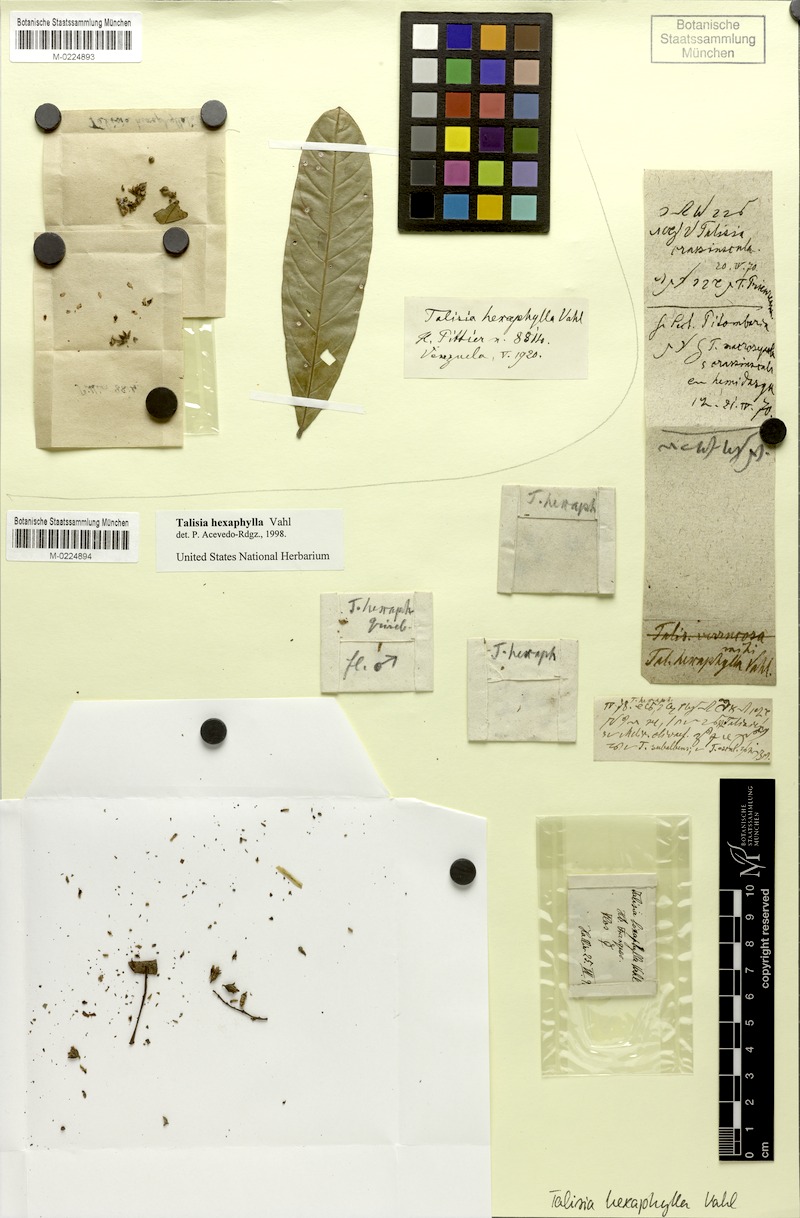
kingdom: Plantae
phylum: Tracheophyta
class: Magnoliopsida
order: Sapindales
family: Sapindaceae
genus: Talisia
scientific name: Talisia hexaphylla
